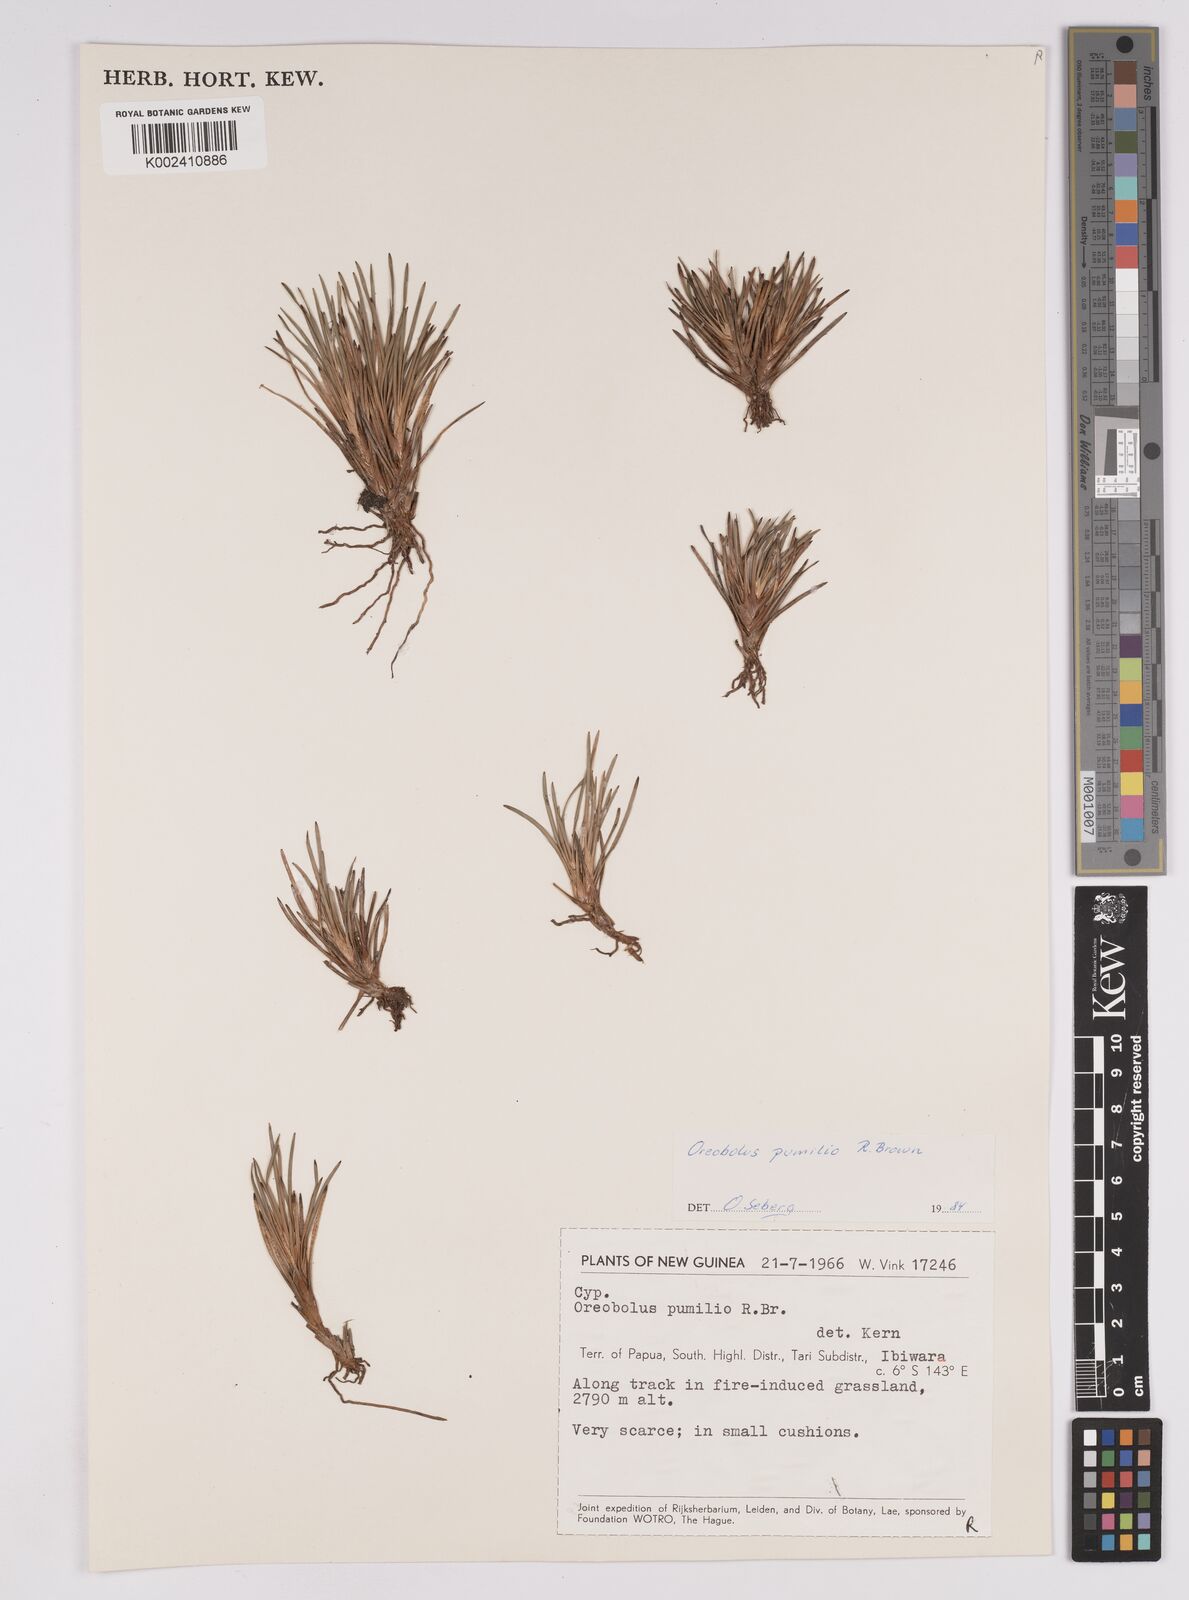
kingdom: Plantae
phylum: Tracheophyta
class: Liliopsida
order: Poales
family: Cyperaceae
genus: Oreobolus
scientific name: Oreobolus pumilio
